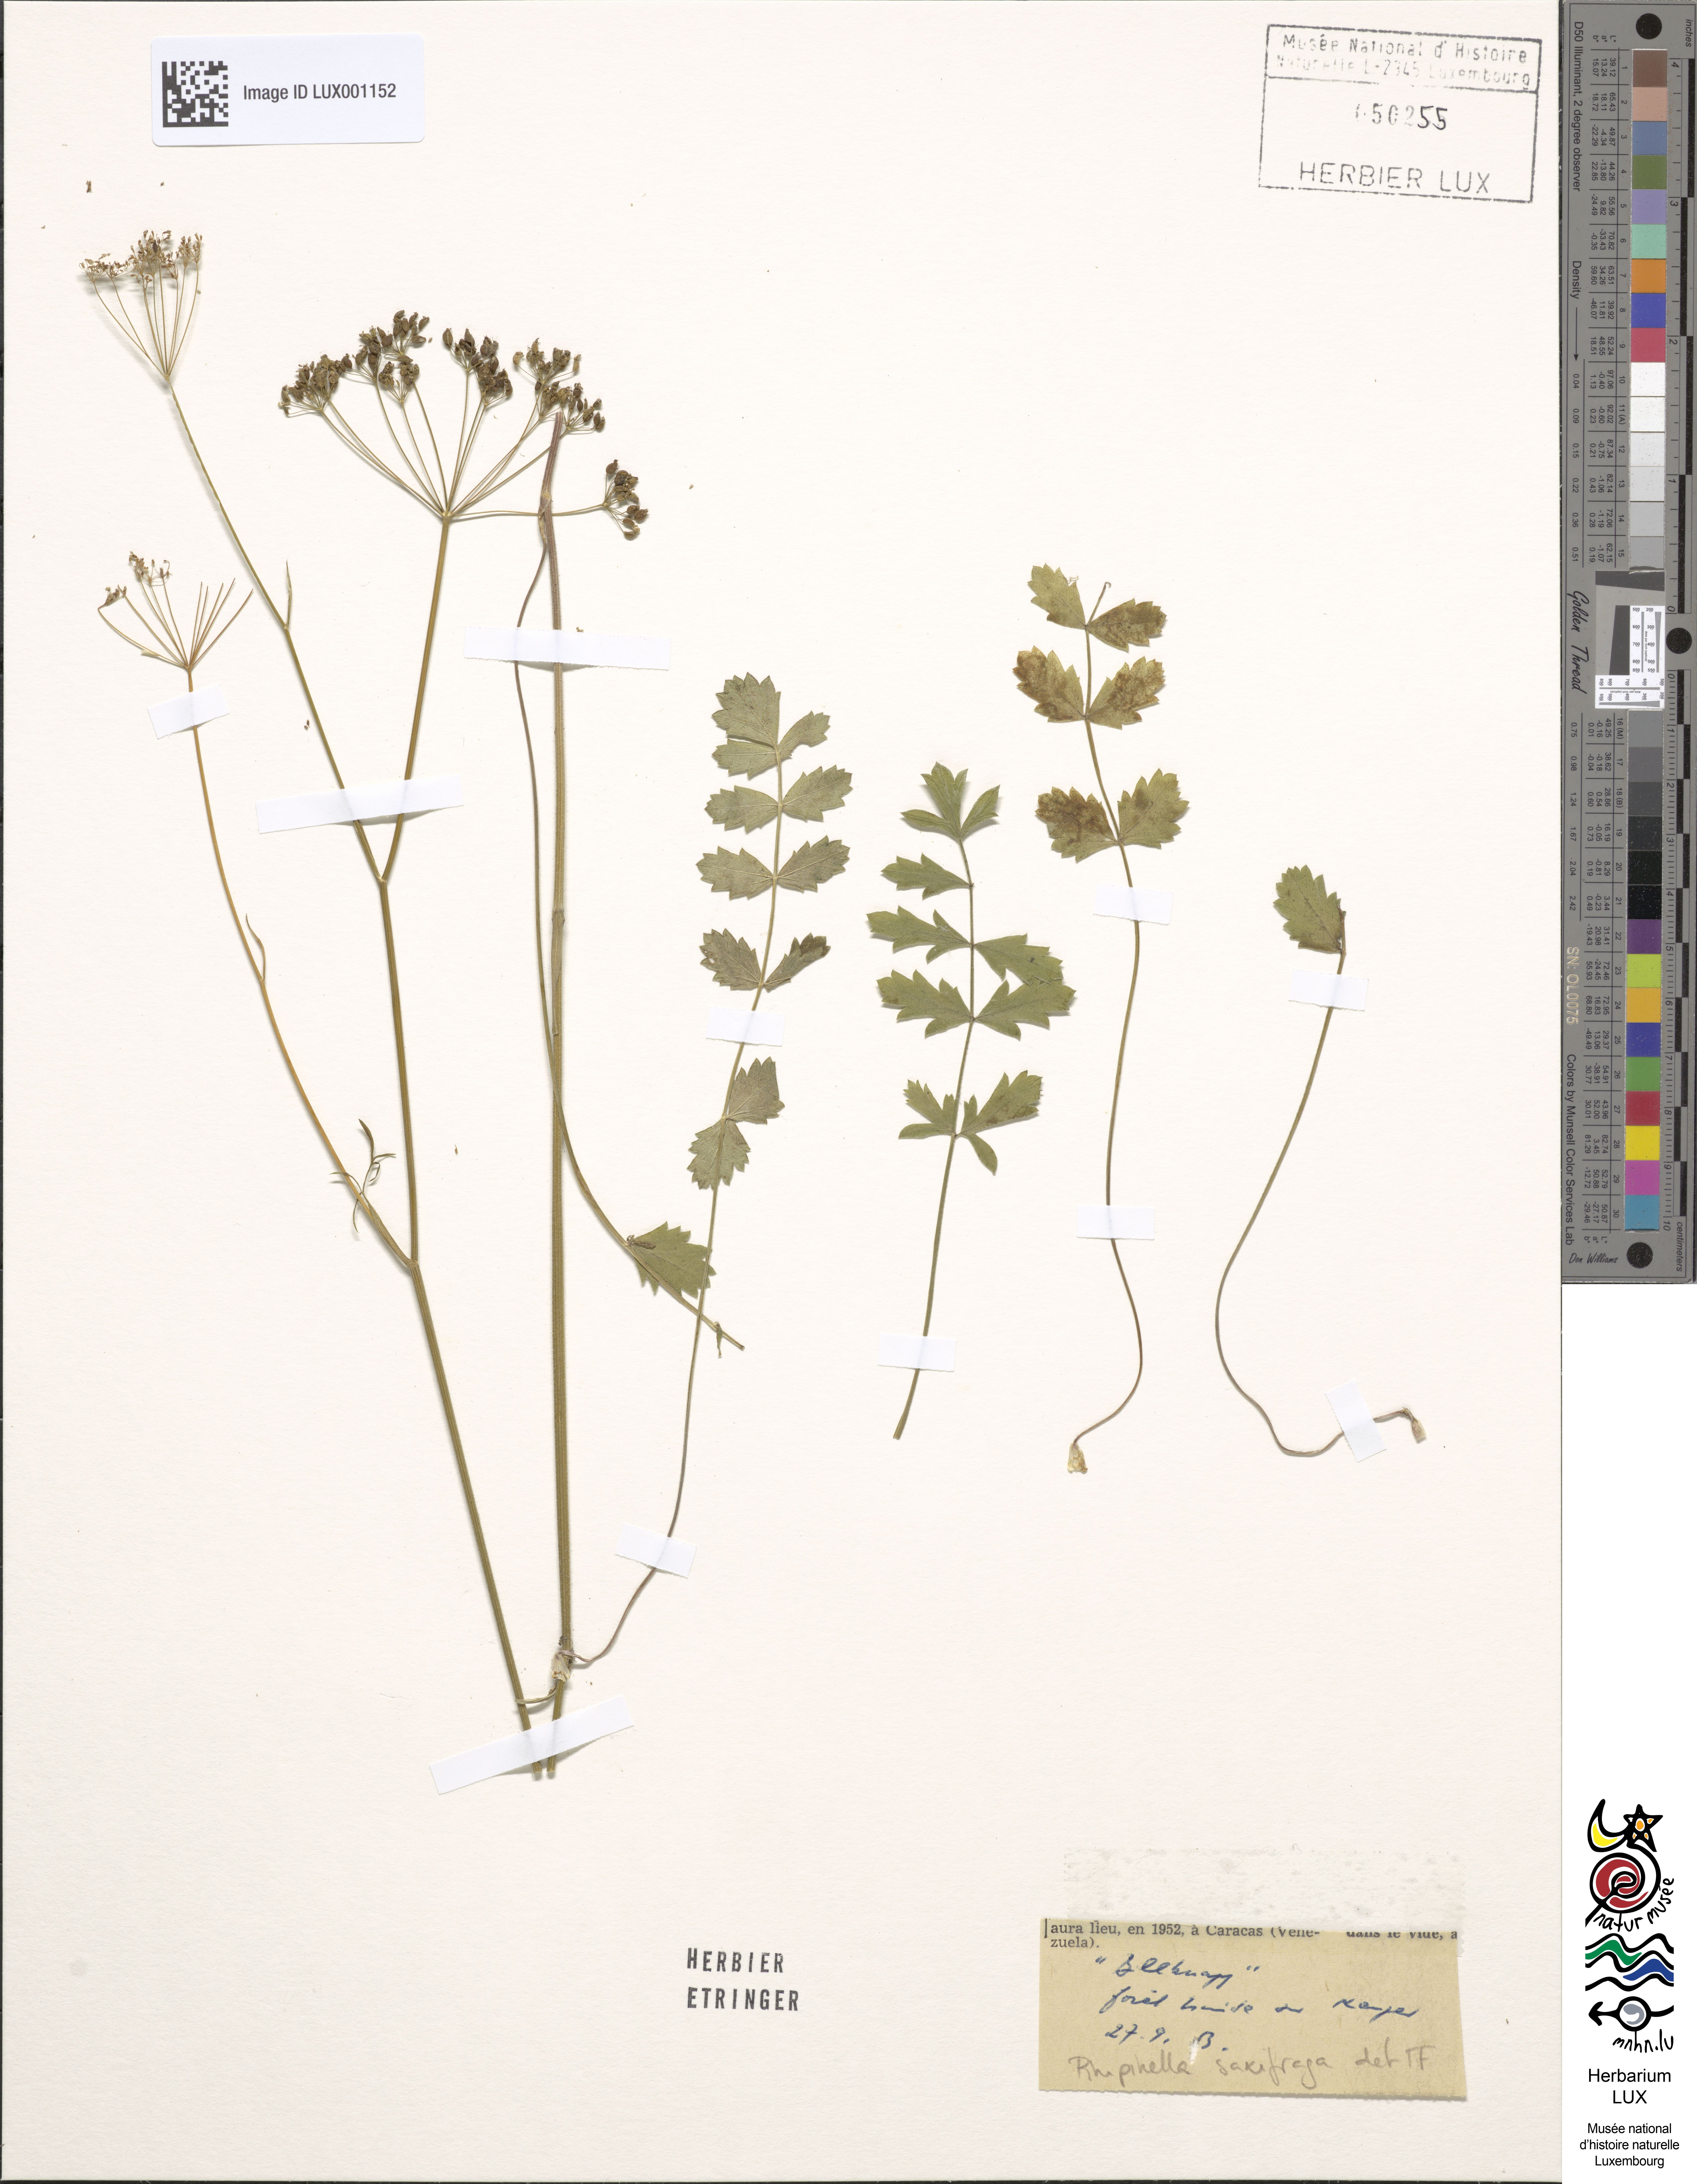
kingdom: Plantae
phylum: Tracheophyta
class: Magnoliopsida
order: Apiales
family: Apiaceae
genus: Pimpinella
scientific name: Pimpinella saxifraga
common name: Burnet-saxifrage
